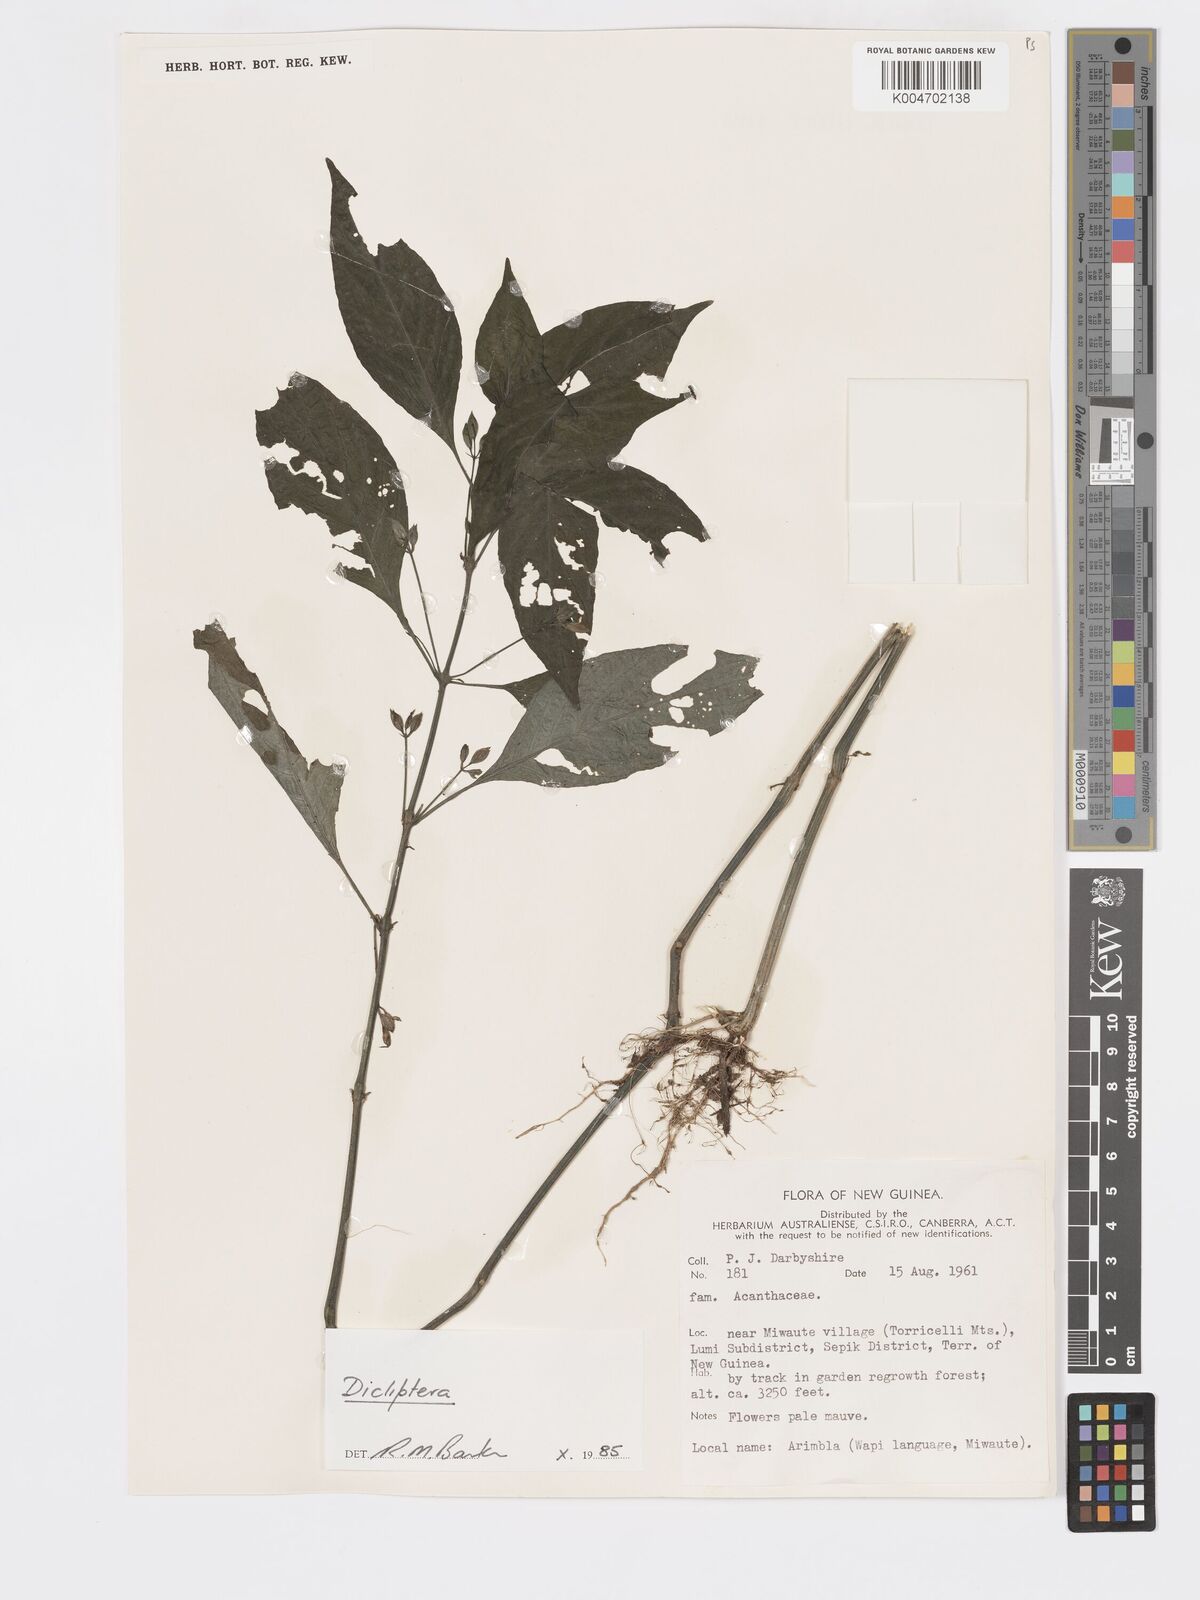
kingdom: Plantae
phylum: Tracheophyta
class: Magnoliopsida
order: Lamiales
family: Acanthaceae
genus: Dicliptera
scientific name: Dicliptera
